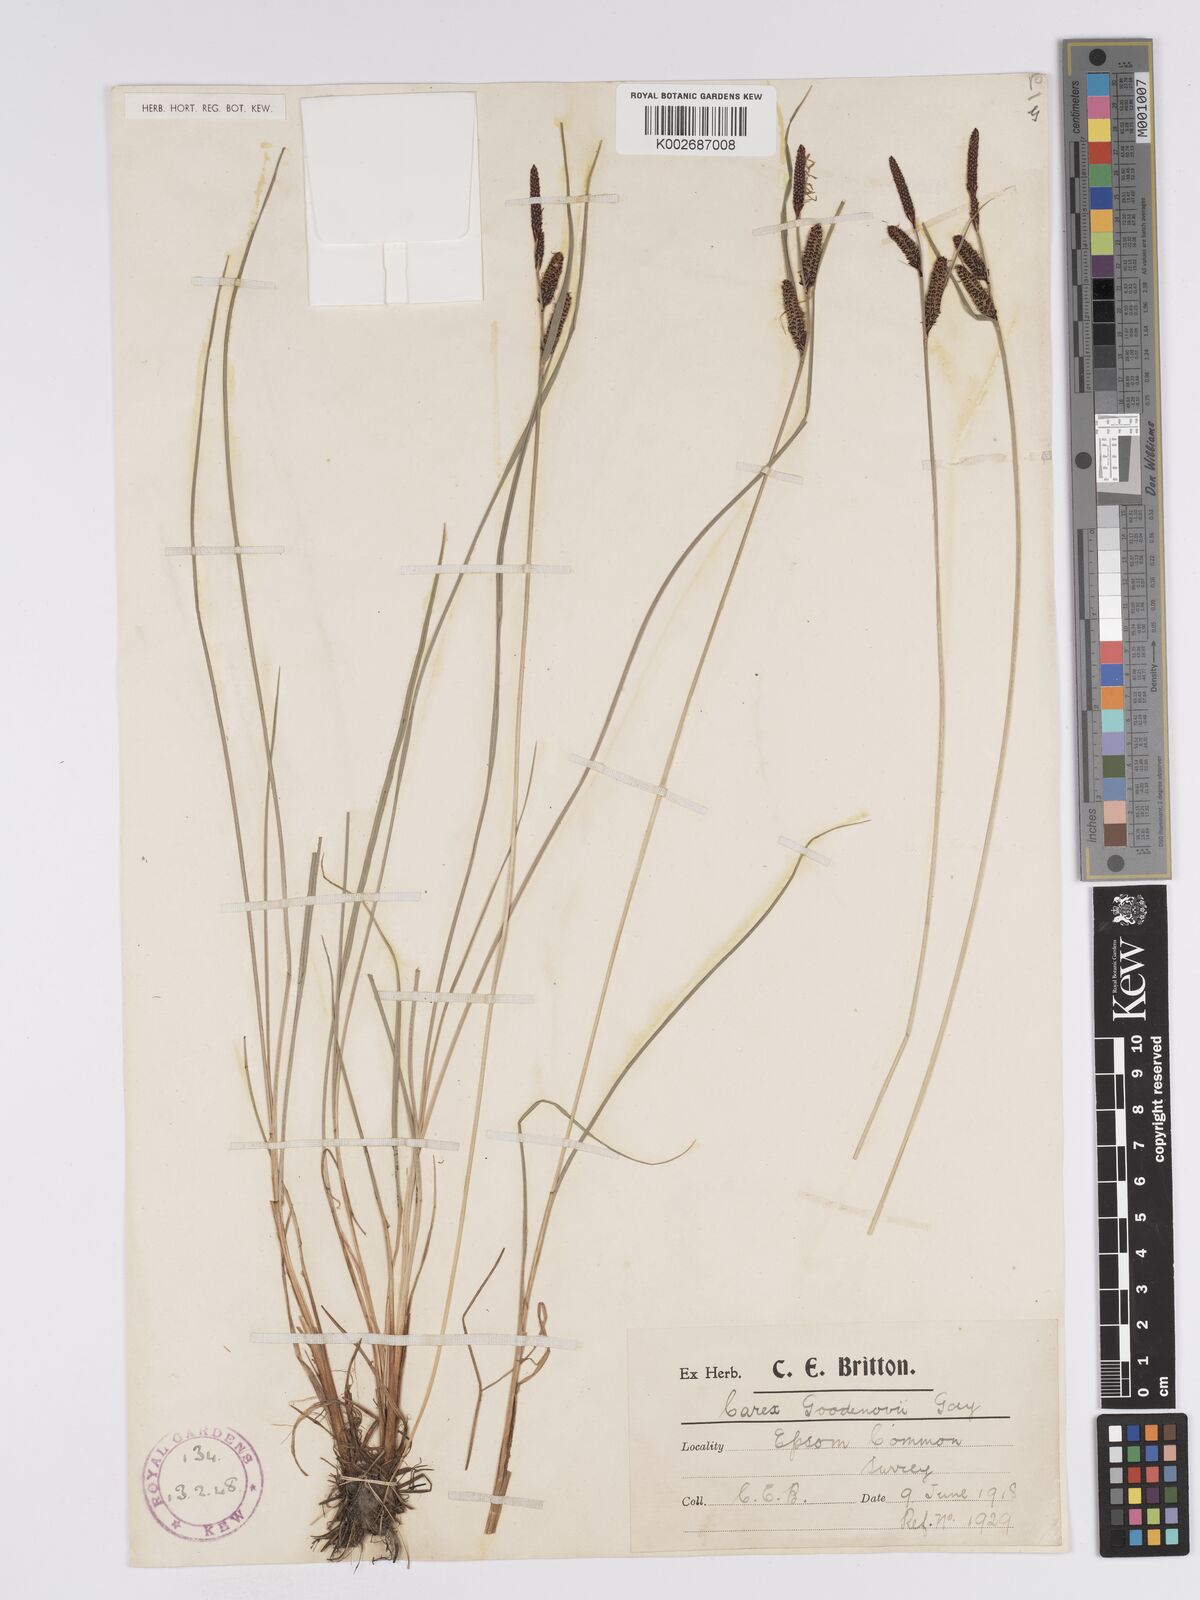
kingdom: Plantae
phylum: Tracheophyta
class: Liliopsida
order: Poales
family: Cyperaceae
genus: Carex
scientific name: Carex nigra
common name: Common sedge
